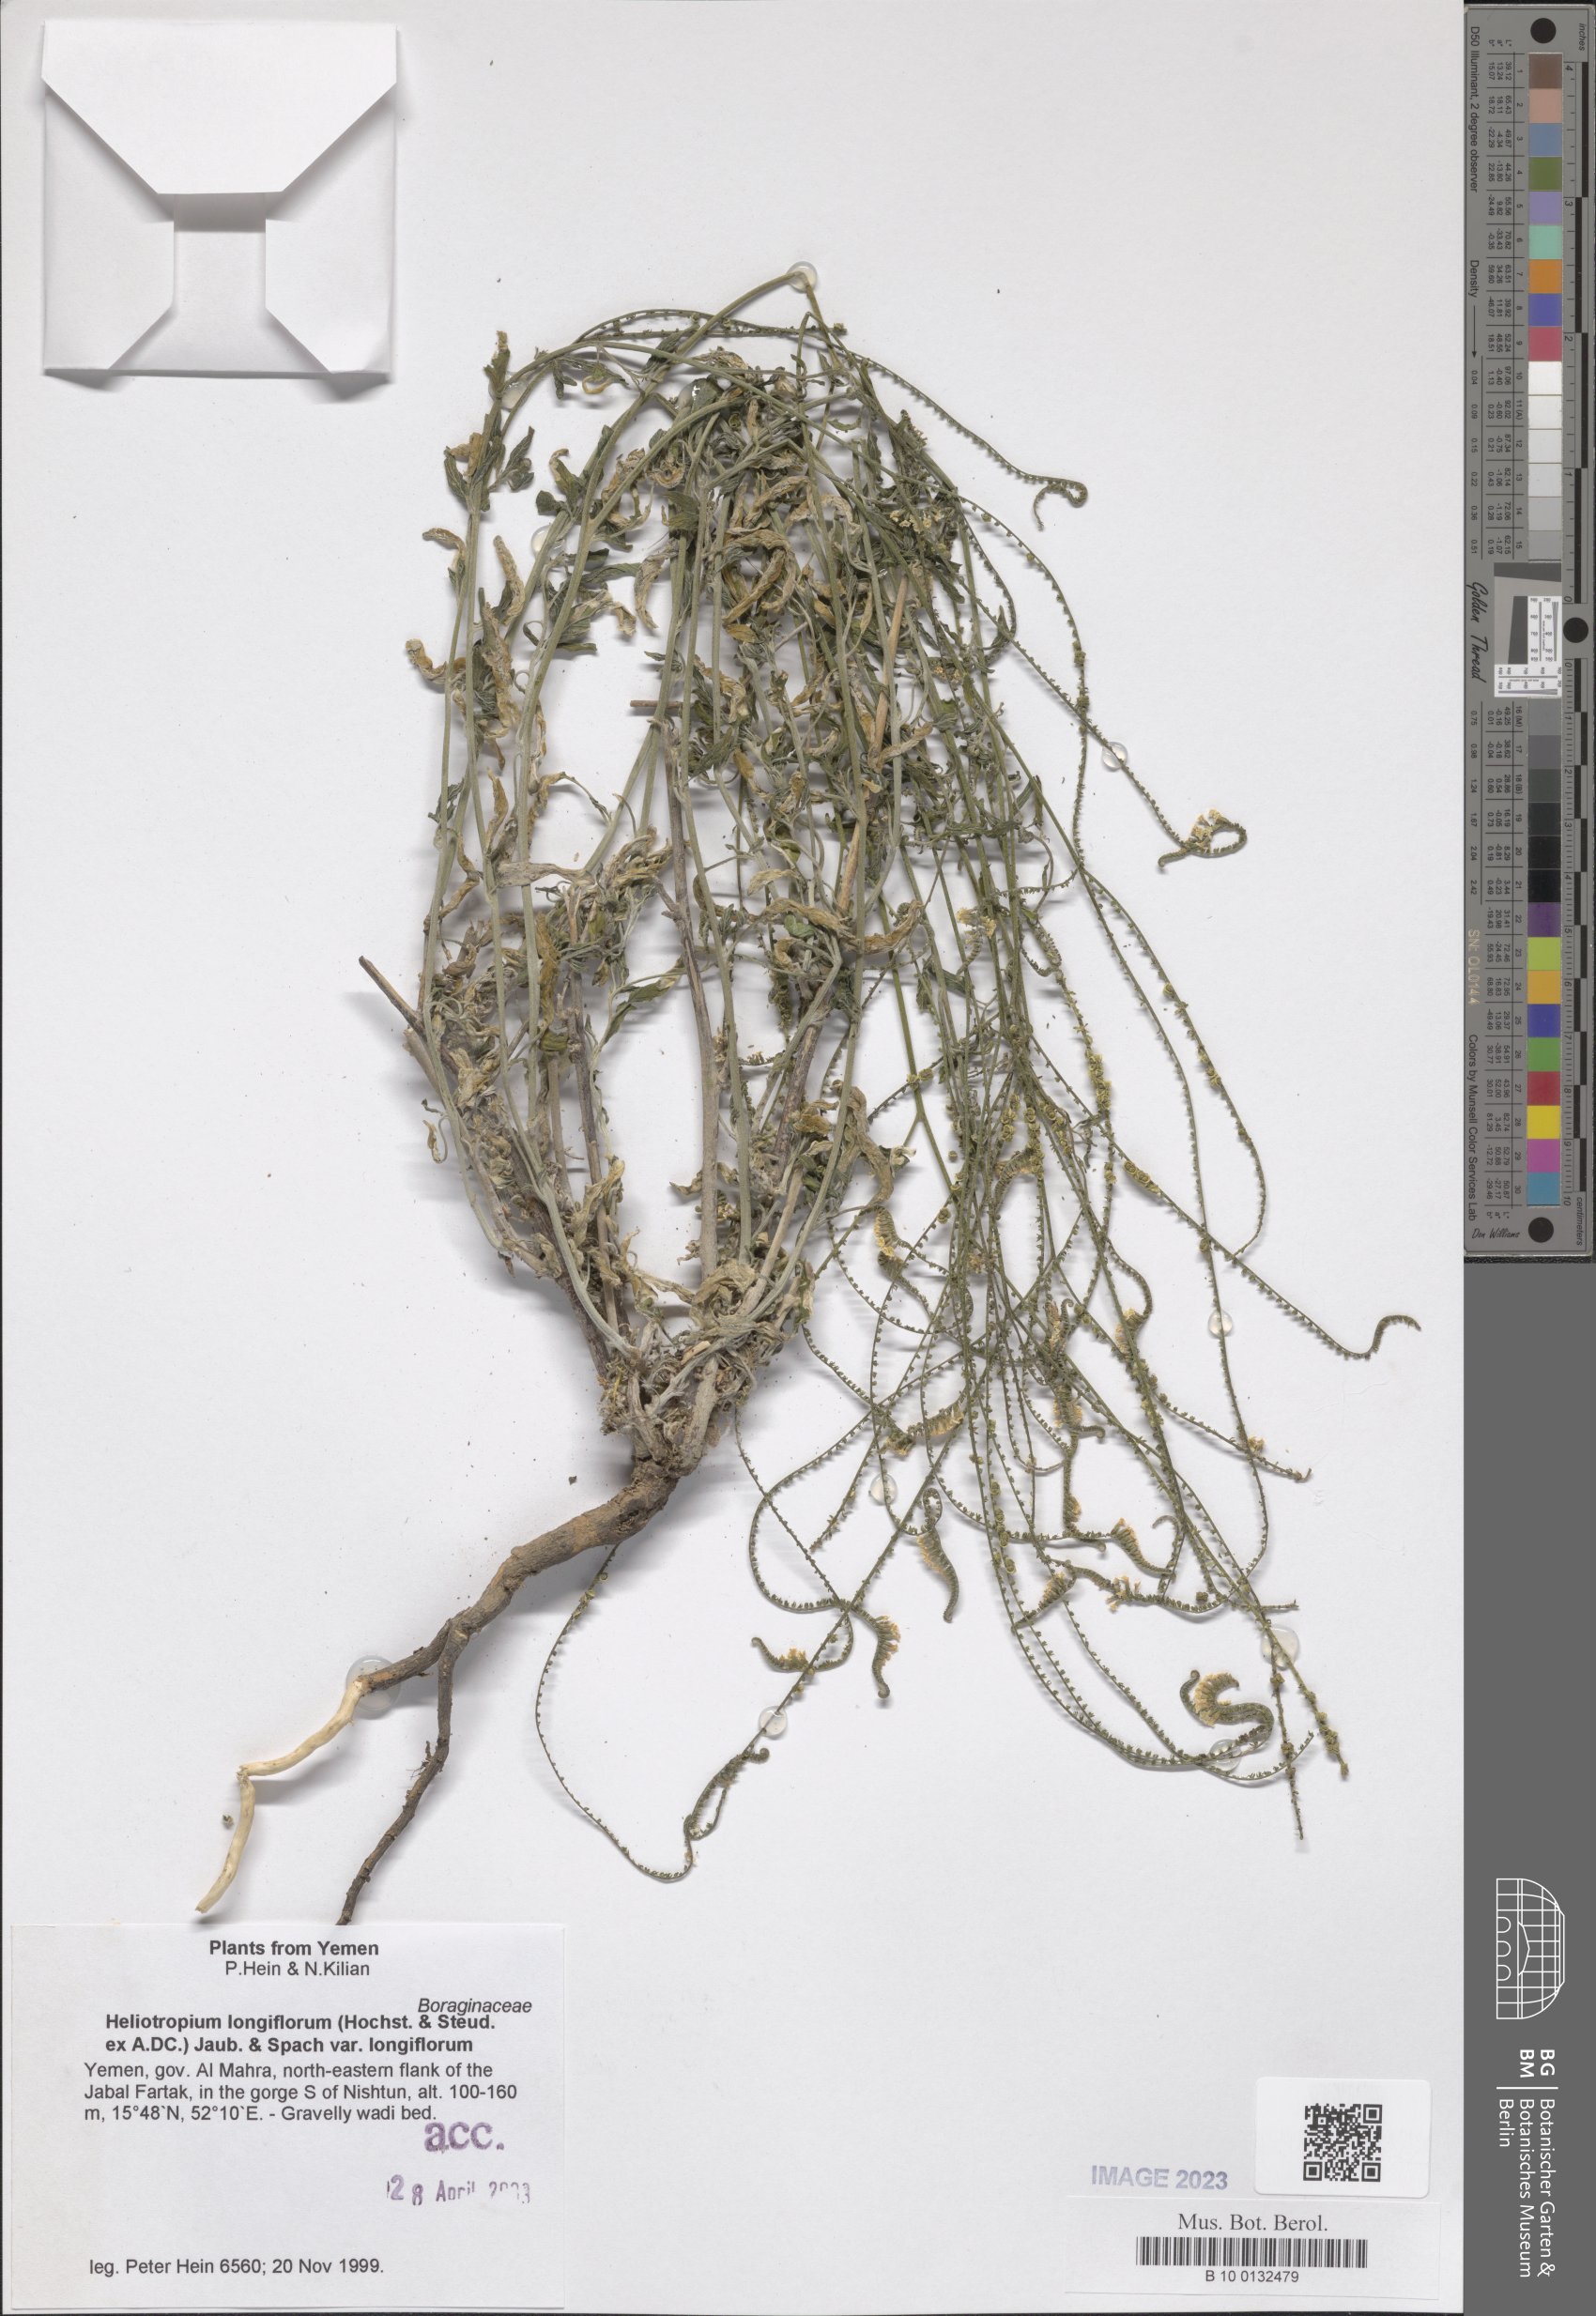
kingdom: Plantae
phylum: Tracheophyta
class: Magnoliopsida
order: Boraginales
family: Heliotropiaceae
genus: Heliotropium
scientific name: Heliotropium longiflorum
